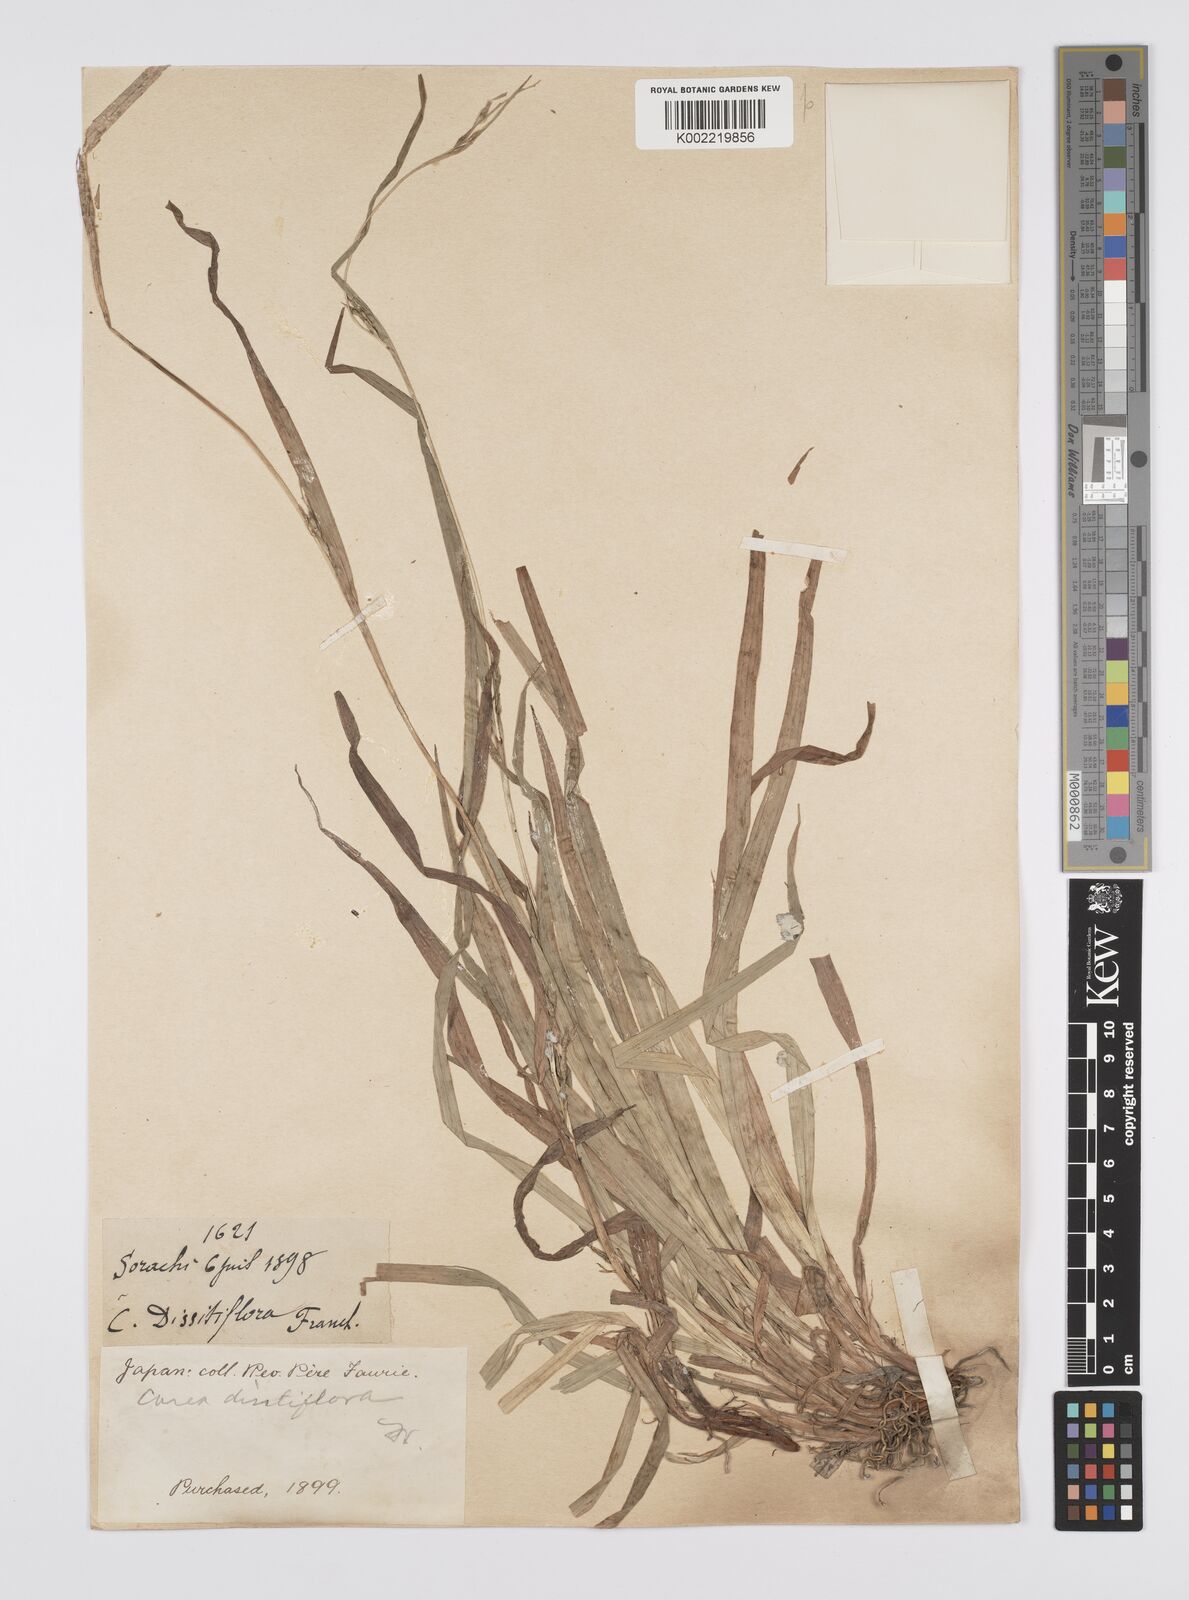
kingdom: Plantae
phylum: Tracheophyta
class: Liliopsida
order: Poales
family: Cyperaceae
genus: Carex
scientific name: Carex dissitiflora
